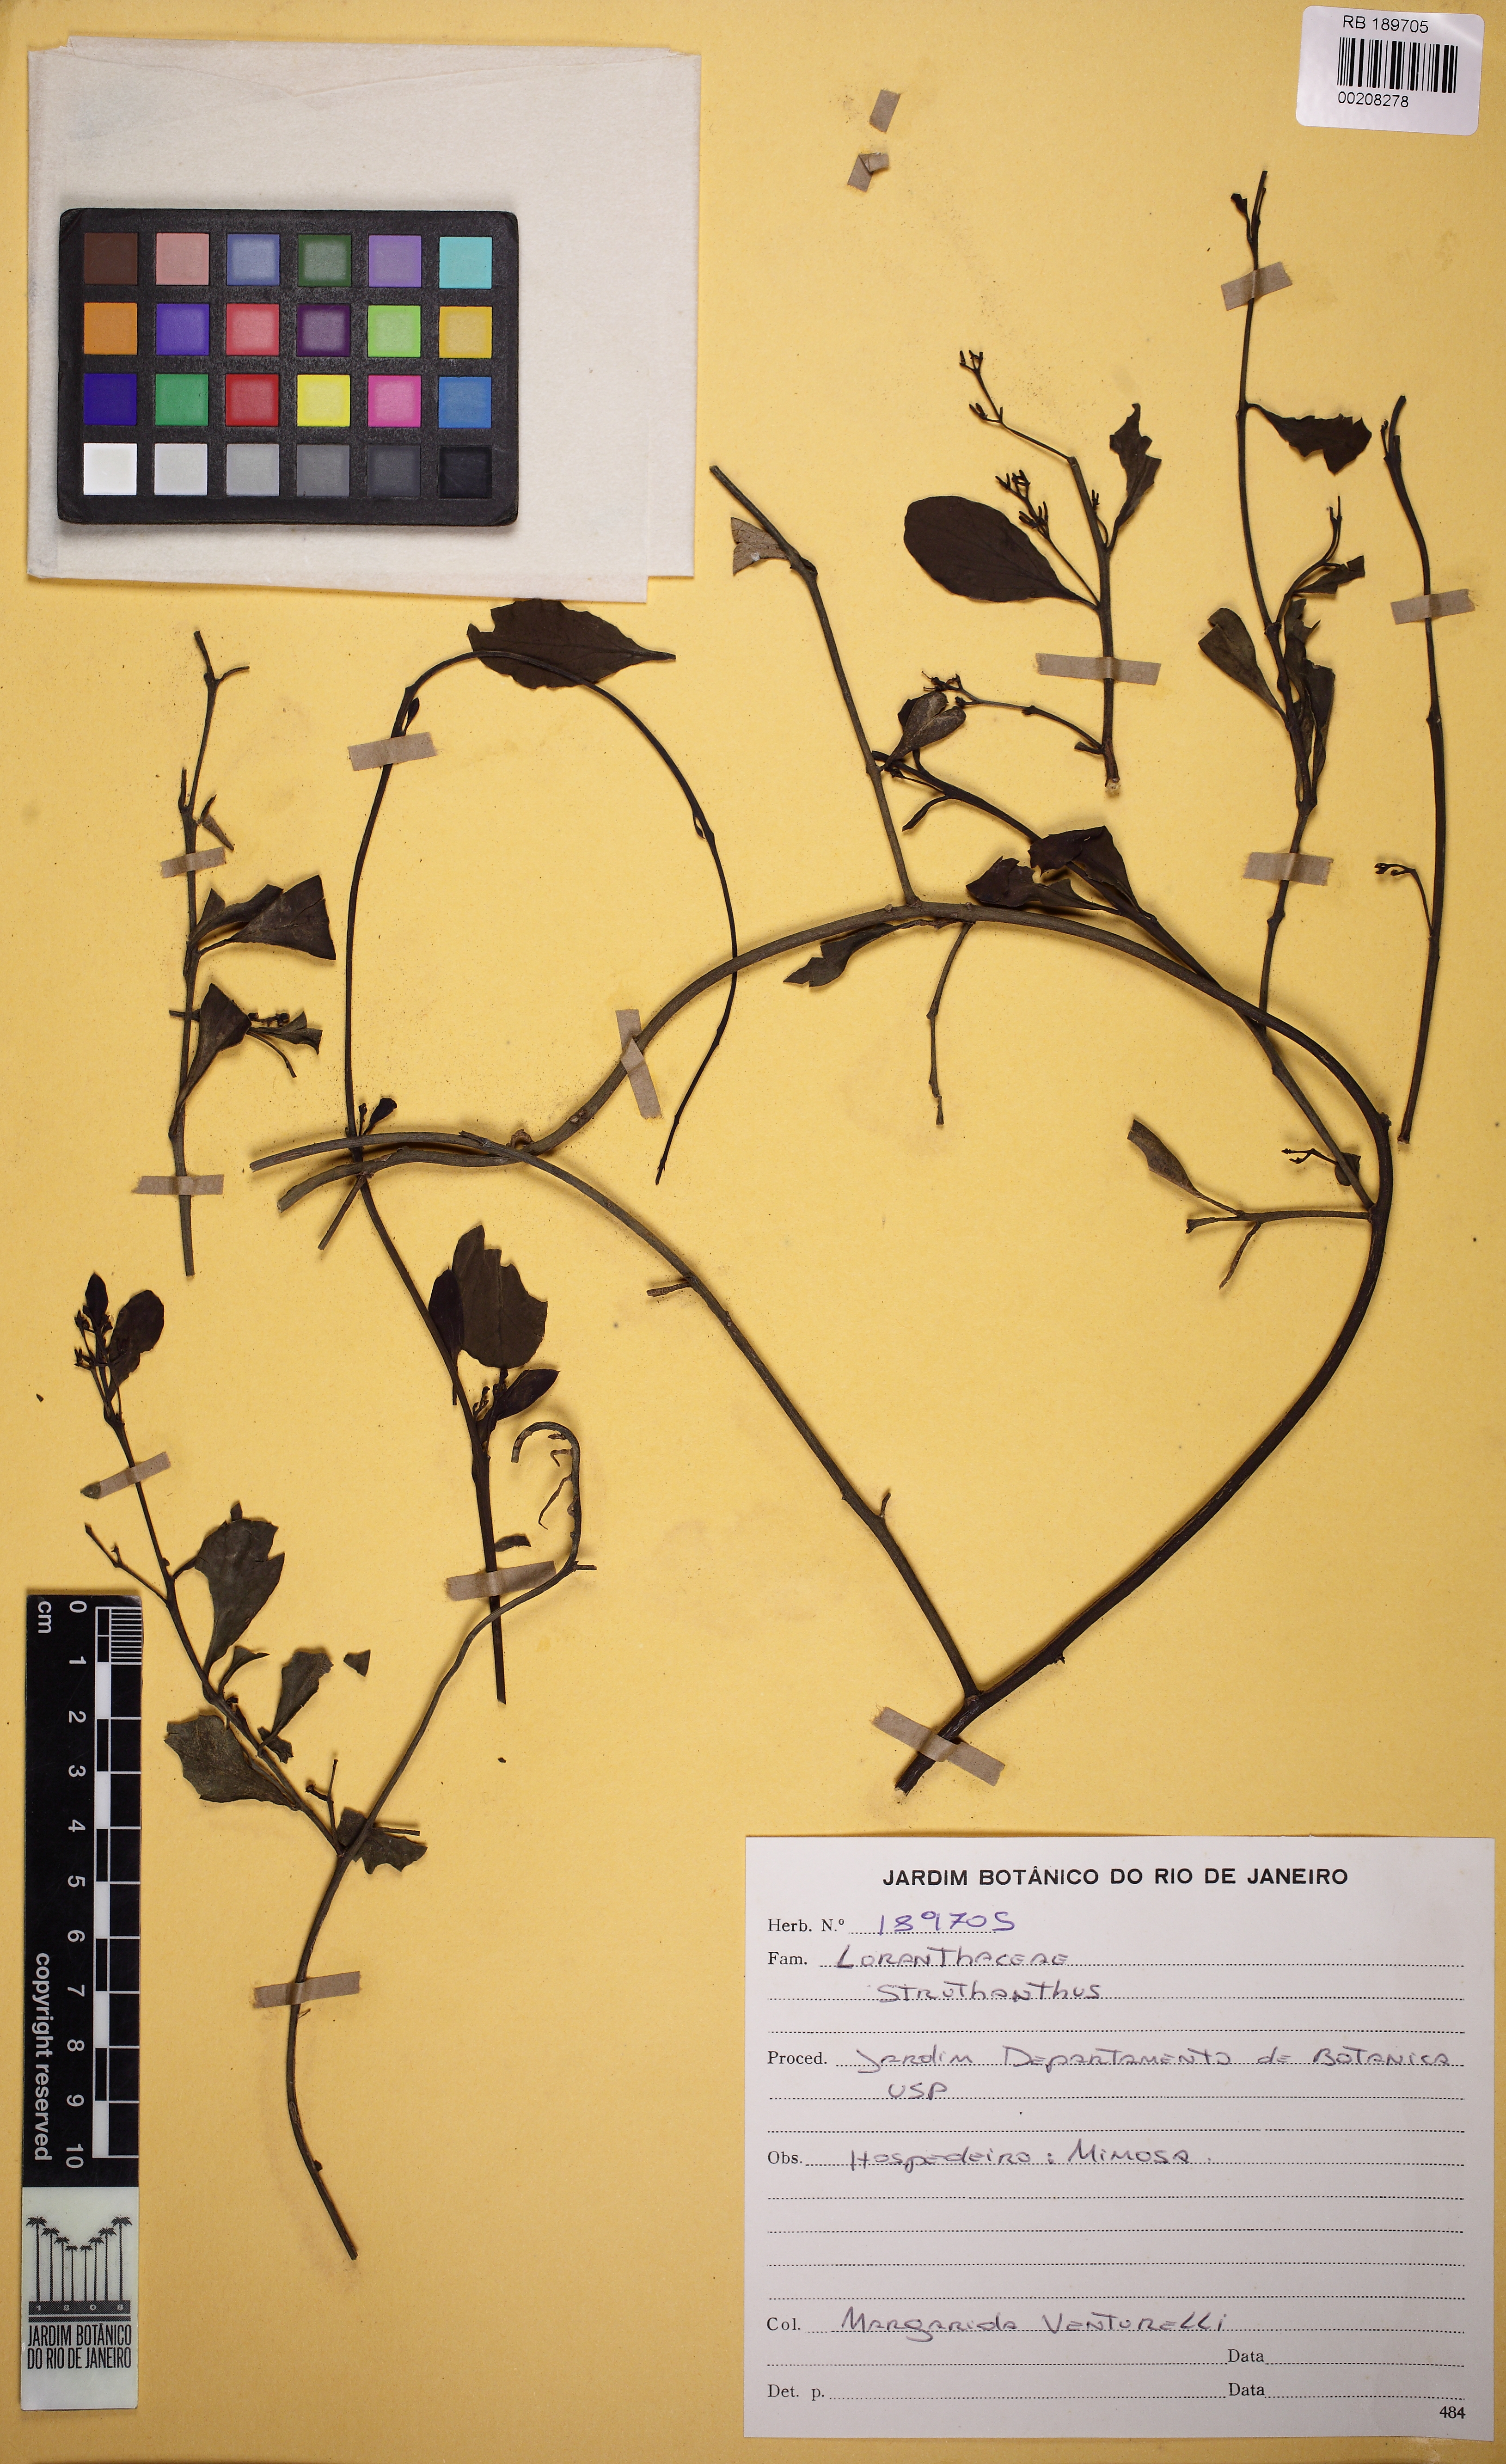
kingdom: Plantae
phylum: Tracheophyta
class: Magnoliopsida
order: Santalales
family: Loranthaceae
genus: Struthanthus
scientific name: Struthanthus
